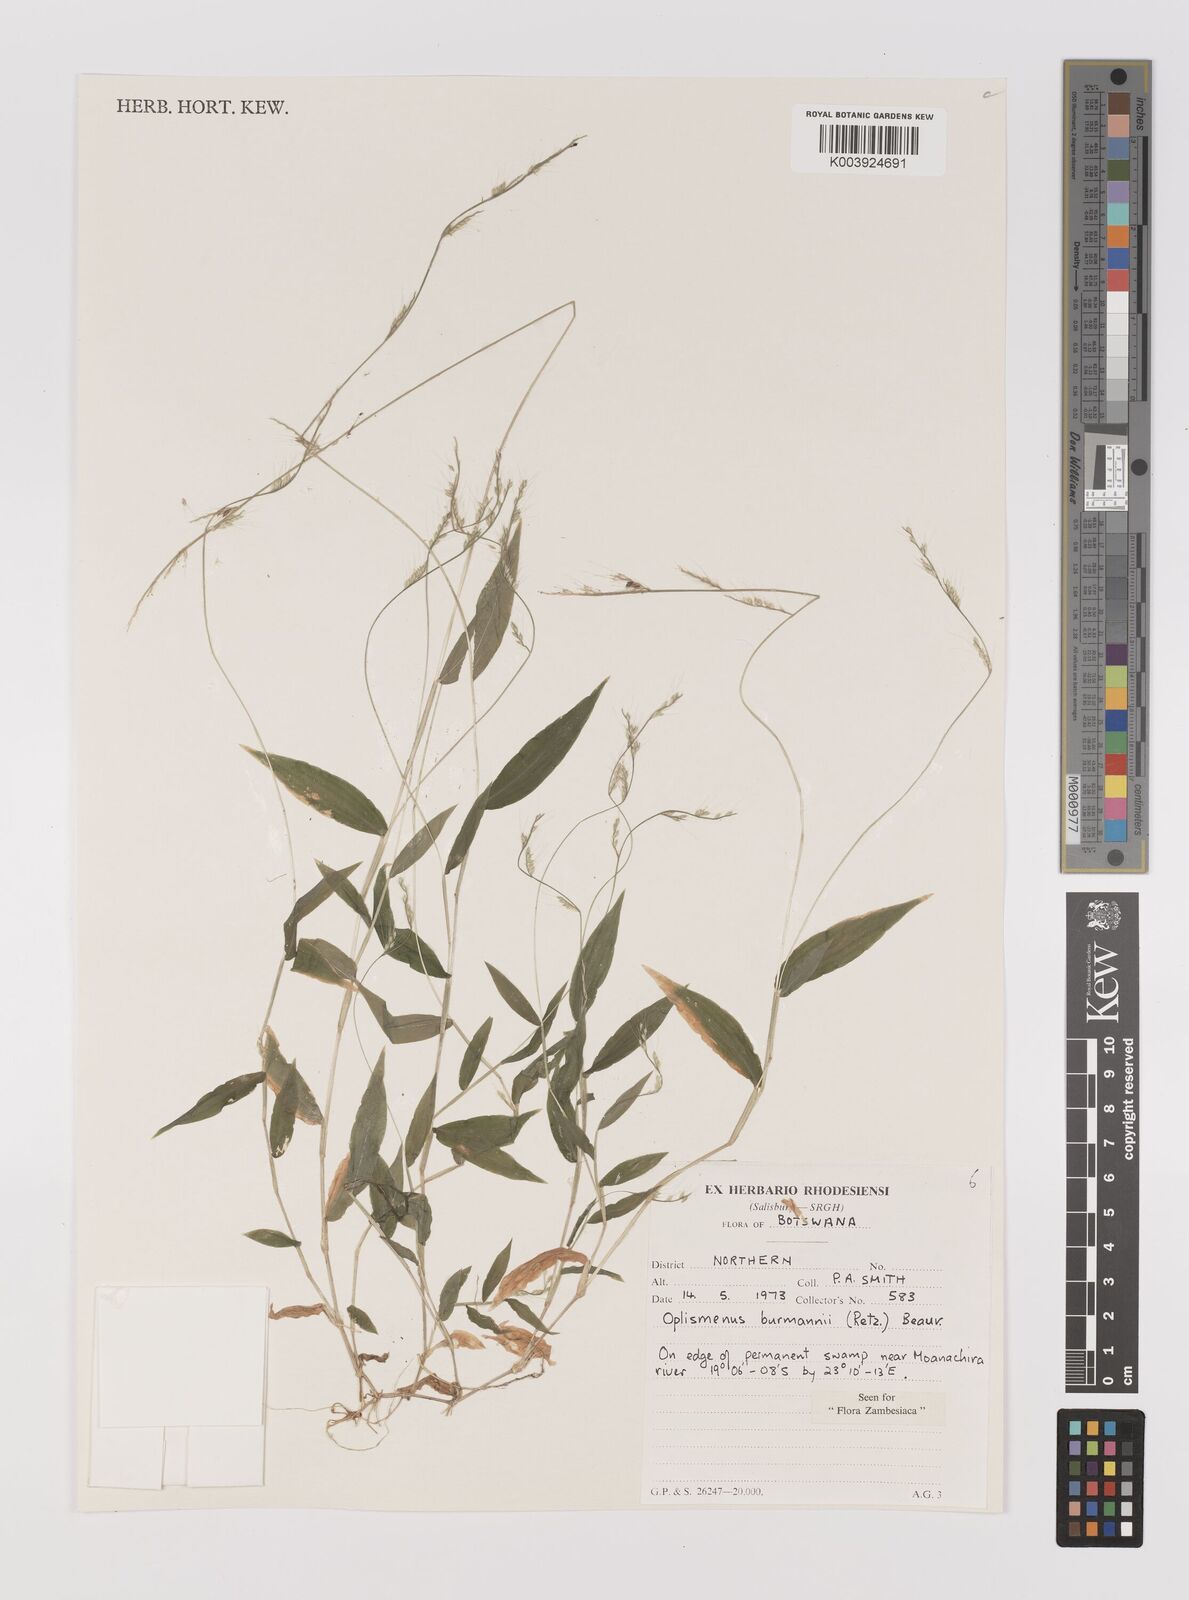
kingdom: Plantae
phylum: Tracheophyta
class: Liliopsida
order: Poales
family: Poaceae
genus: Oplismenus
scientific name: Oplismenus burmanni
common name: Burmann's basketgrass
